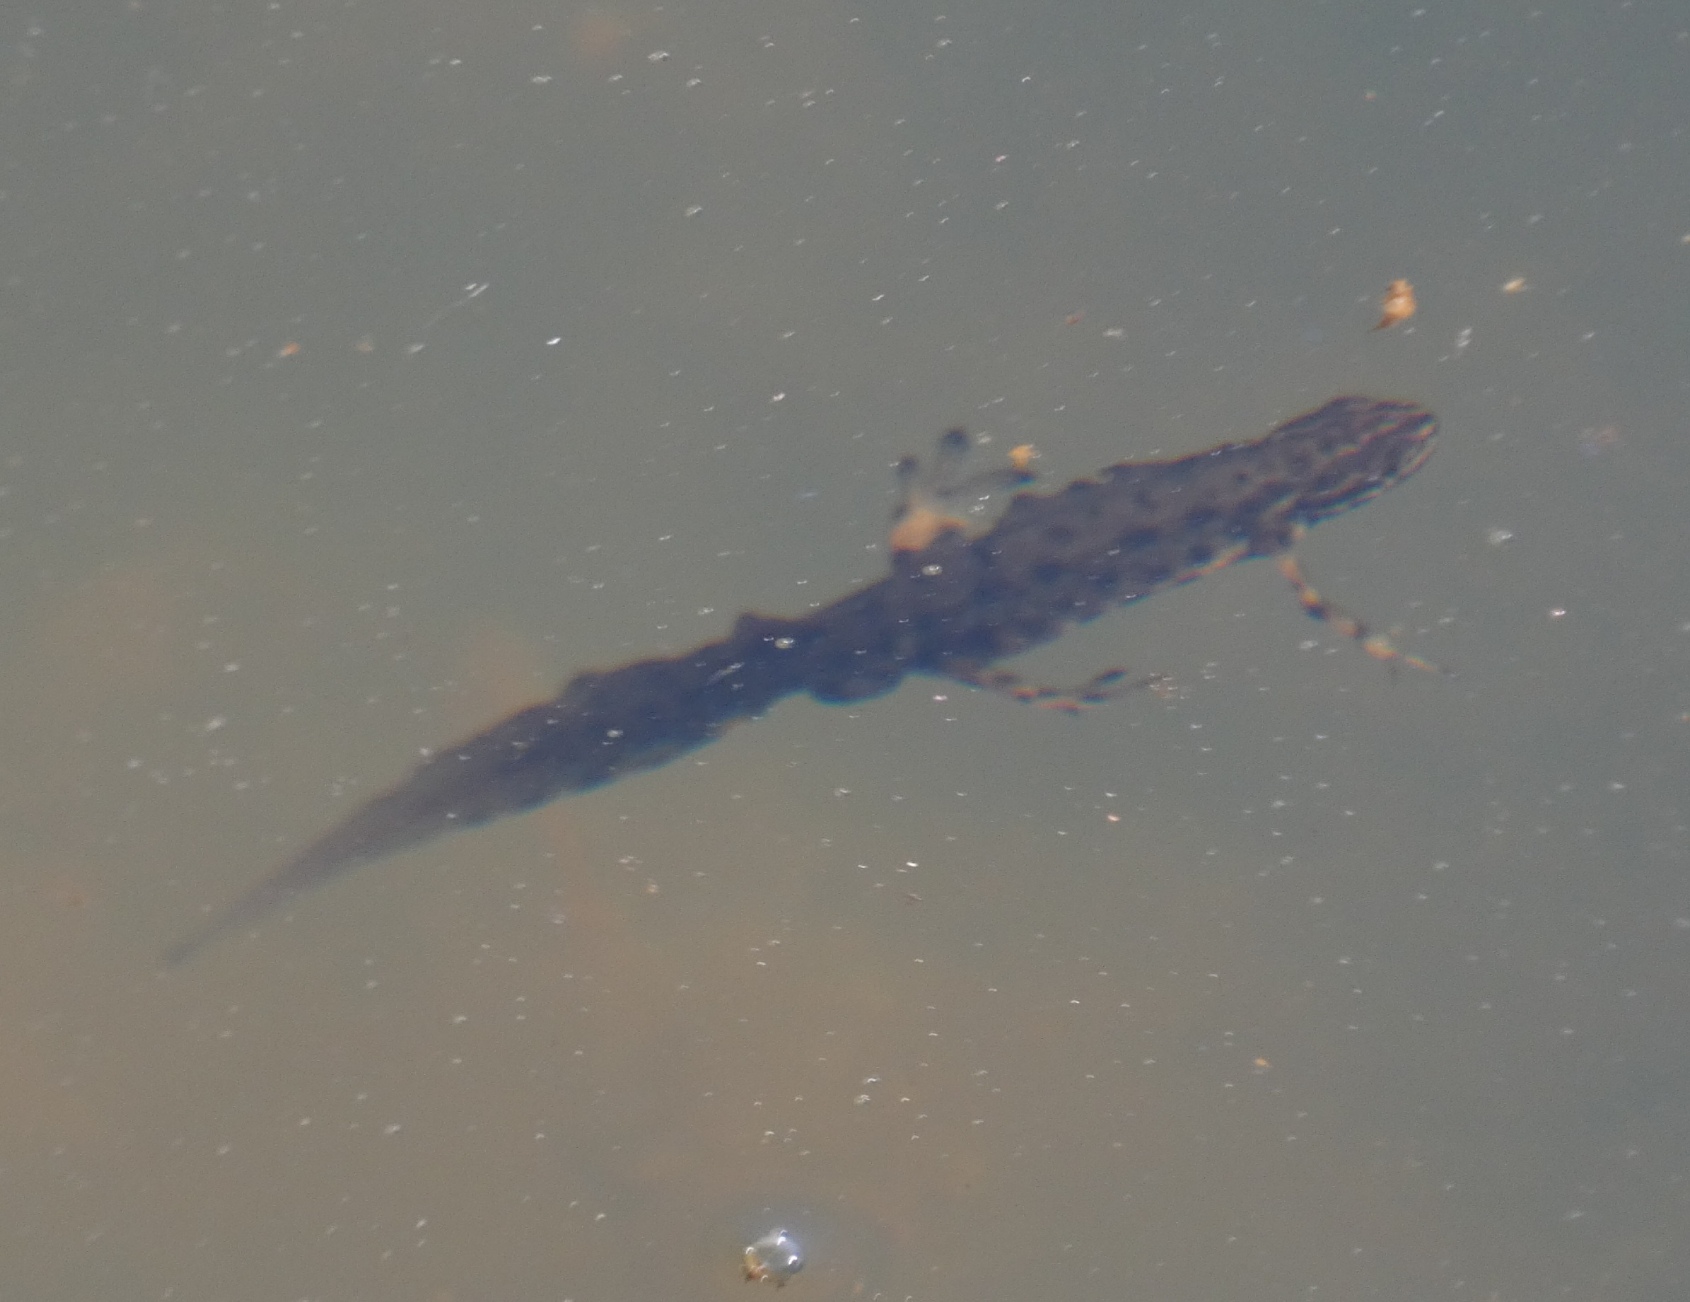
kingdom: Animalia
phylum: Chordata
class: Amphibia
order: Caudata
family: Salamandridae
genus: Lissotriton
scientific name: Lissotriton vulgaris
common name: Lille vandsalamander
